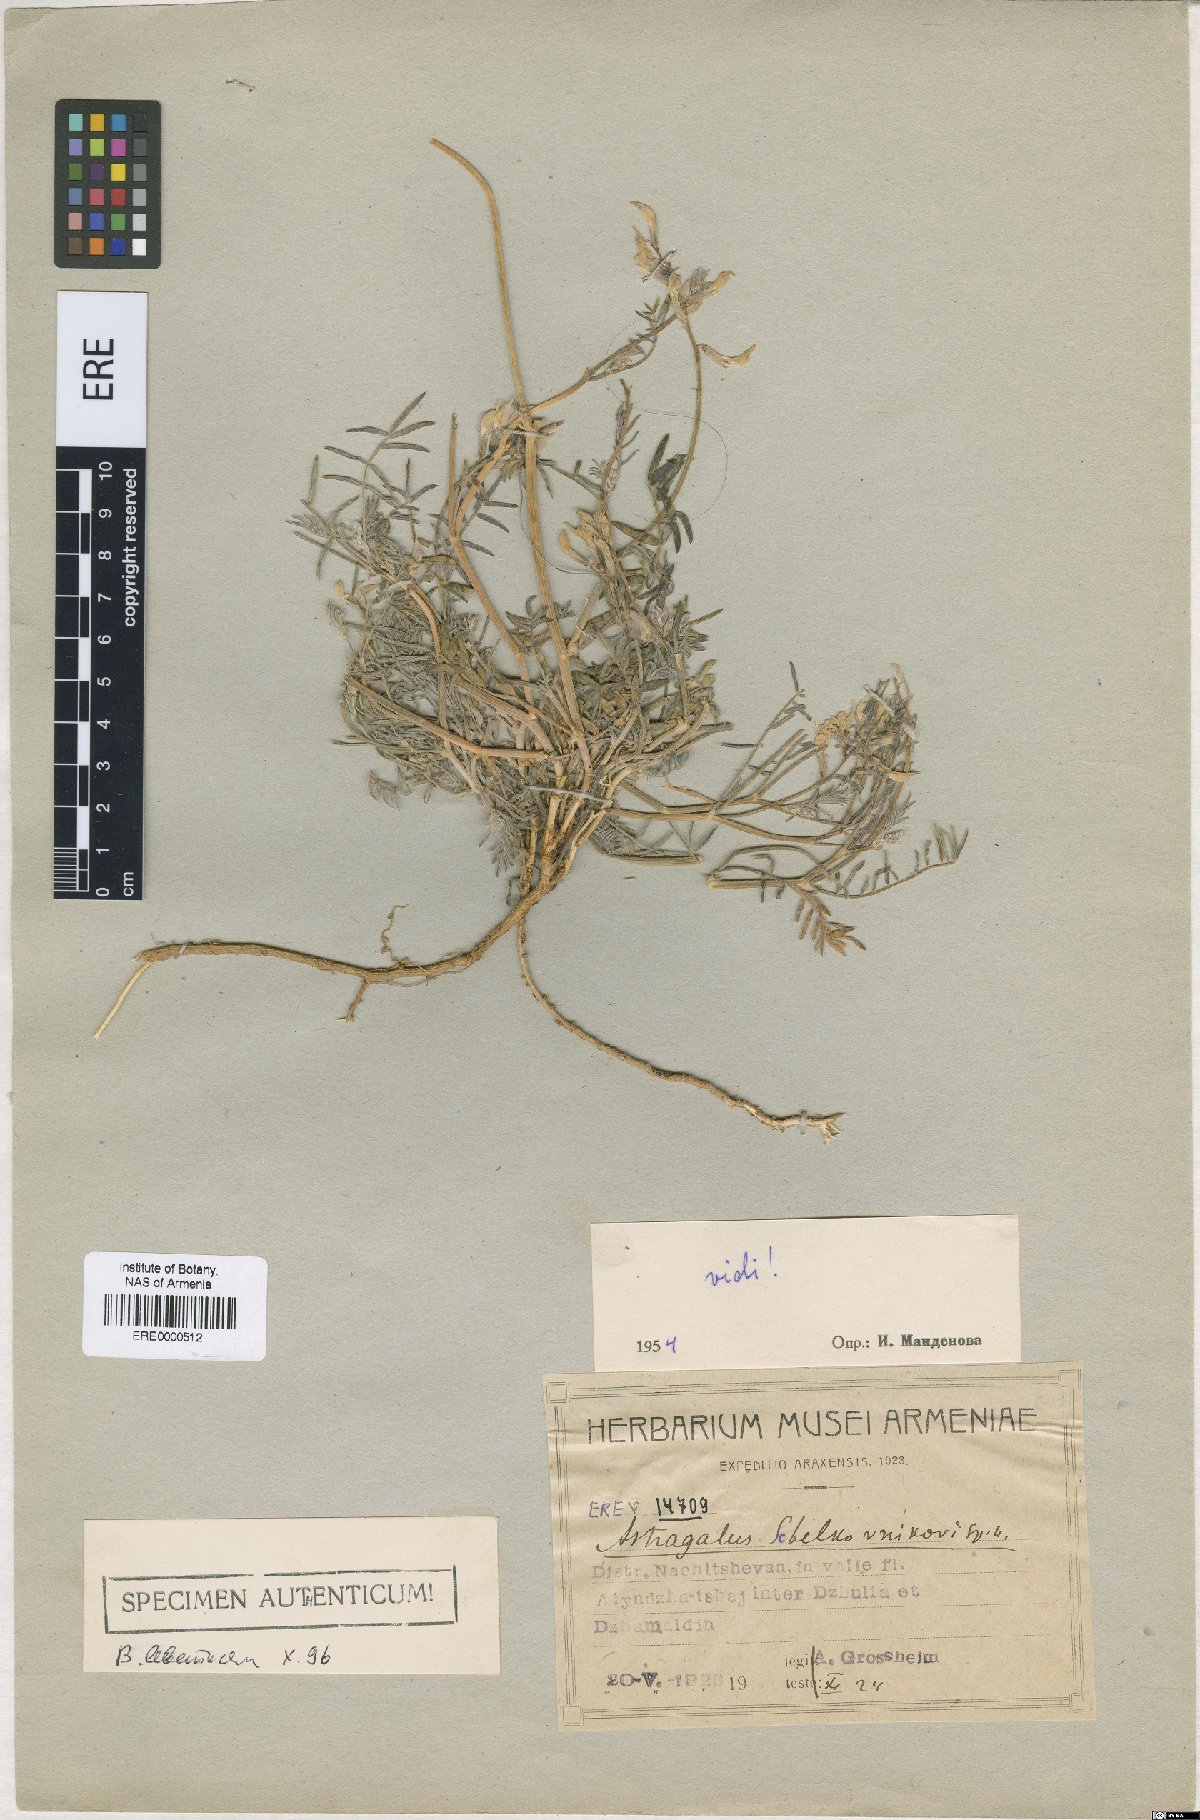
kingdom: Plantae
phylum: Tracheophyta
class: Magnoliopsida
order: Fabales
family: Fabaceae
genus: Astragalus
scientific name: Astragalus shelkovnikovii
